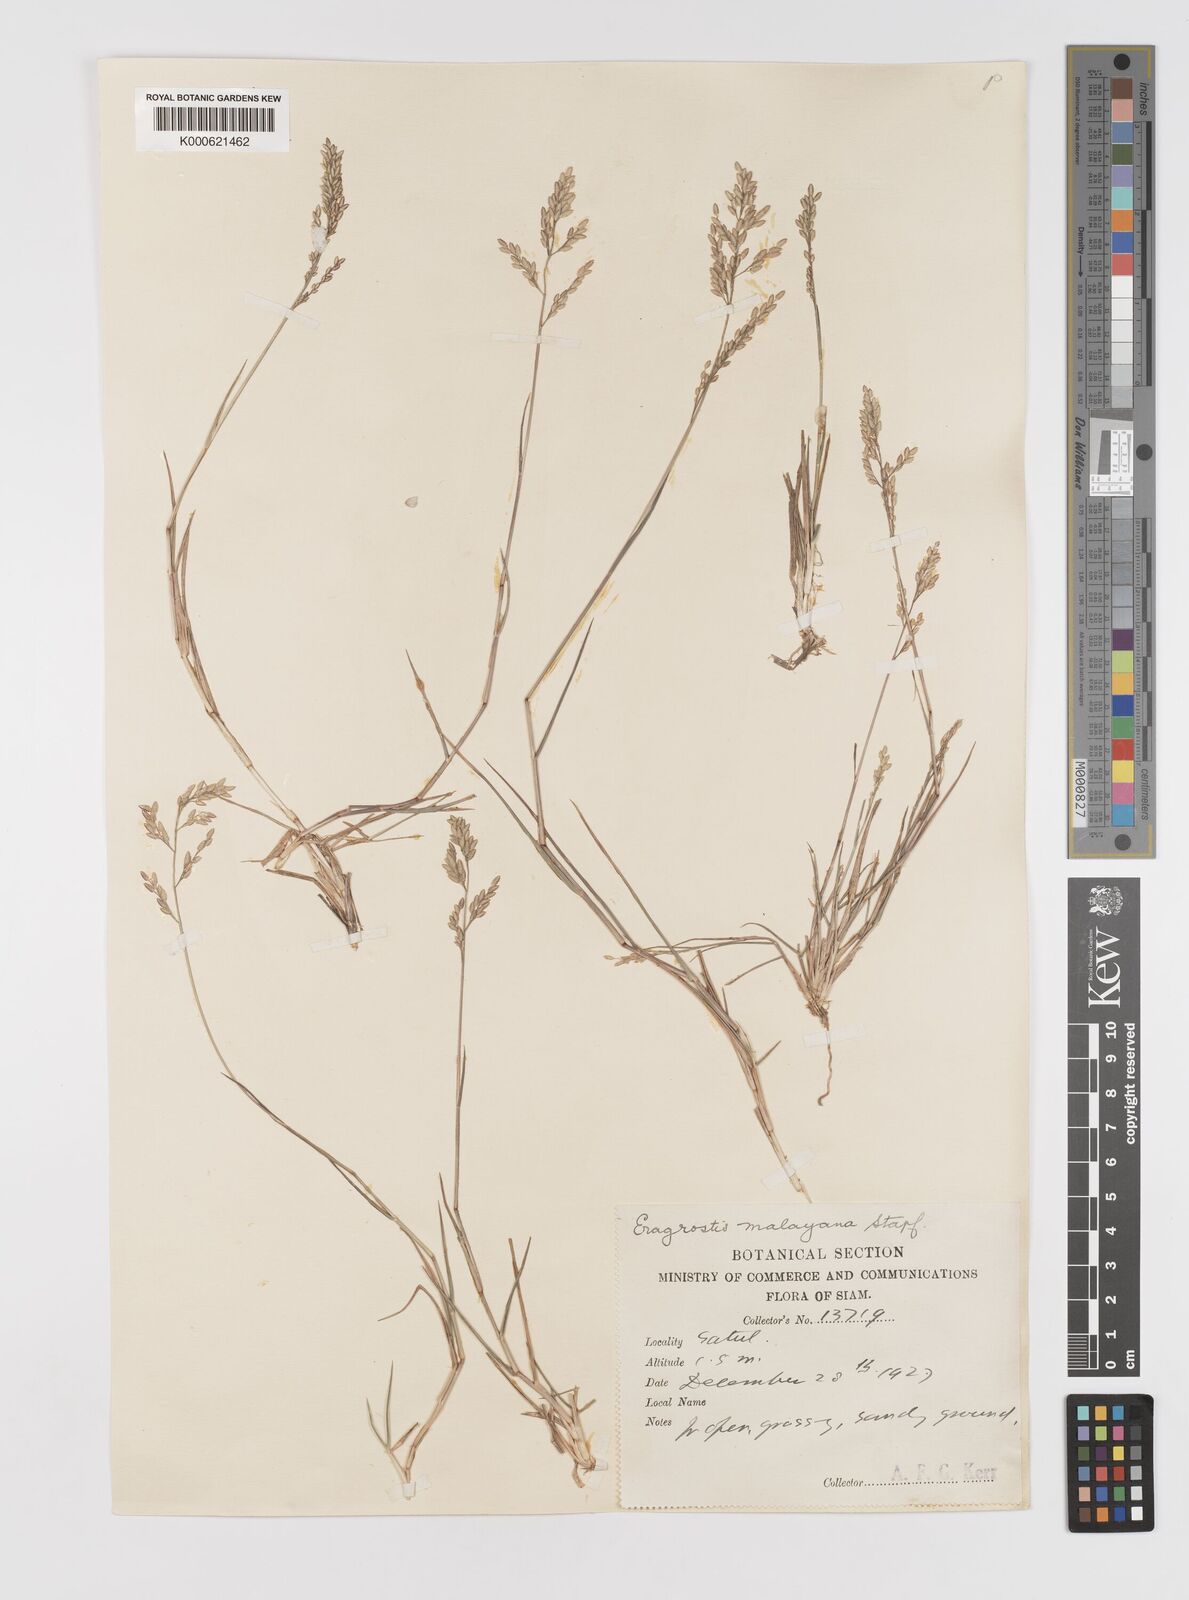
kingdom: Plantae
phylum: Tracheophyta
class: Liliopsida
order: Poales
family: Poaceae
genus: Eragrostis
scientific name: Eragrostis montana
